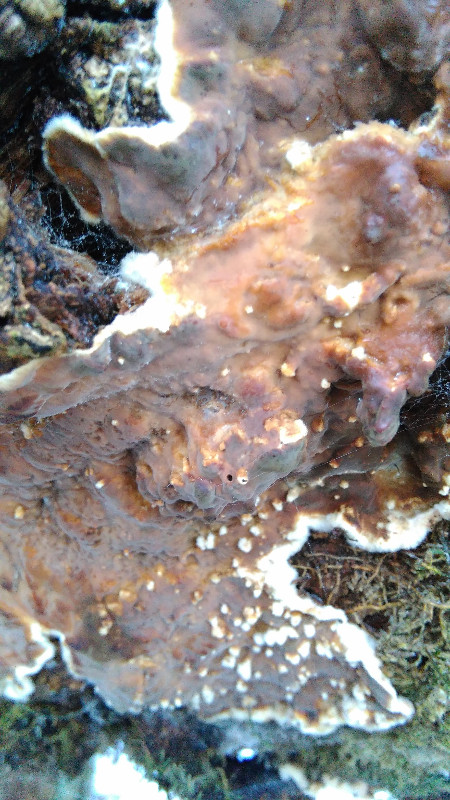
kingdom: Fungi
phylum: Basidiomycota
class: Agaricomycetes
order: Russulales
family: Stereaceae
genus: Stereum
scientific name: Stereum rugosum
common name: rynket lædersvamp
